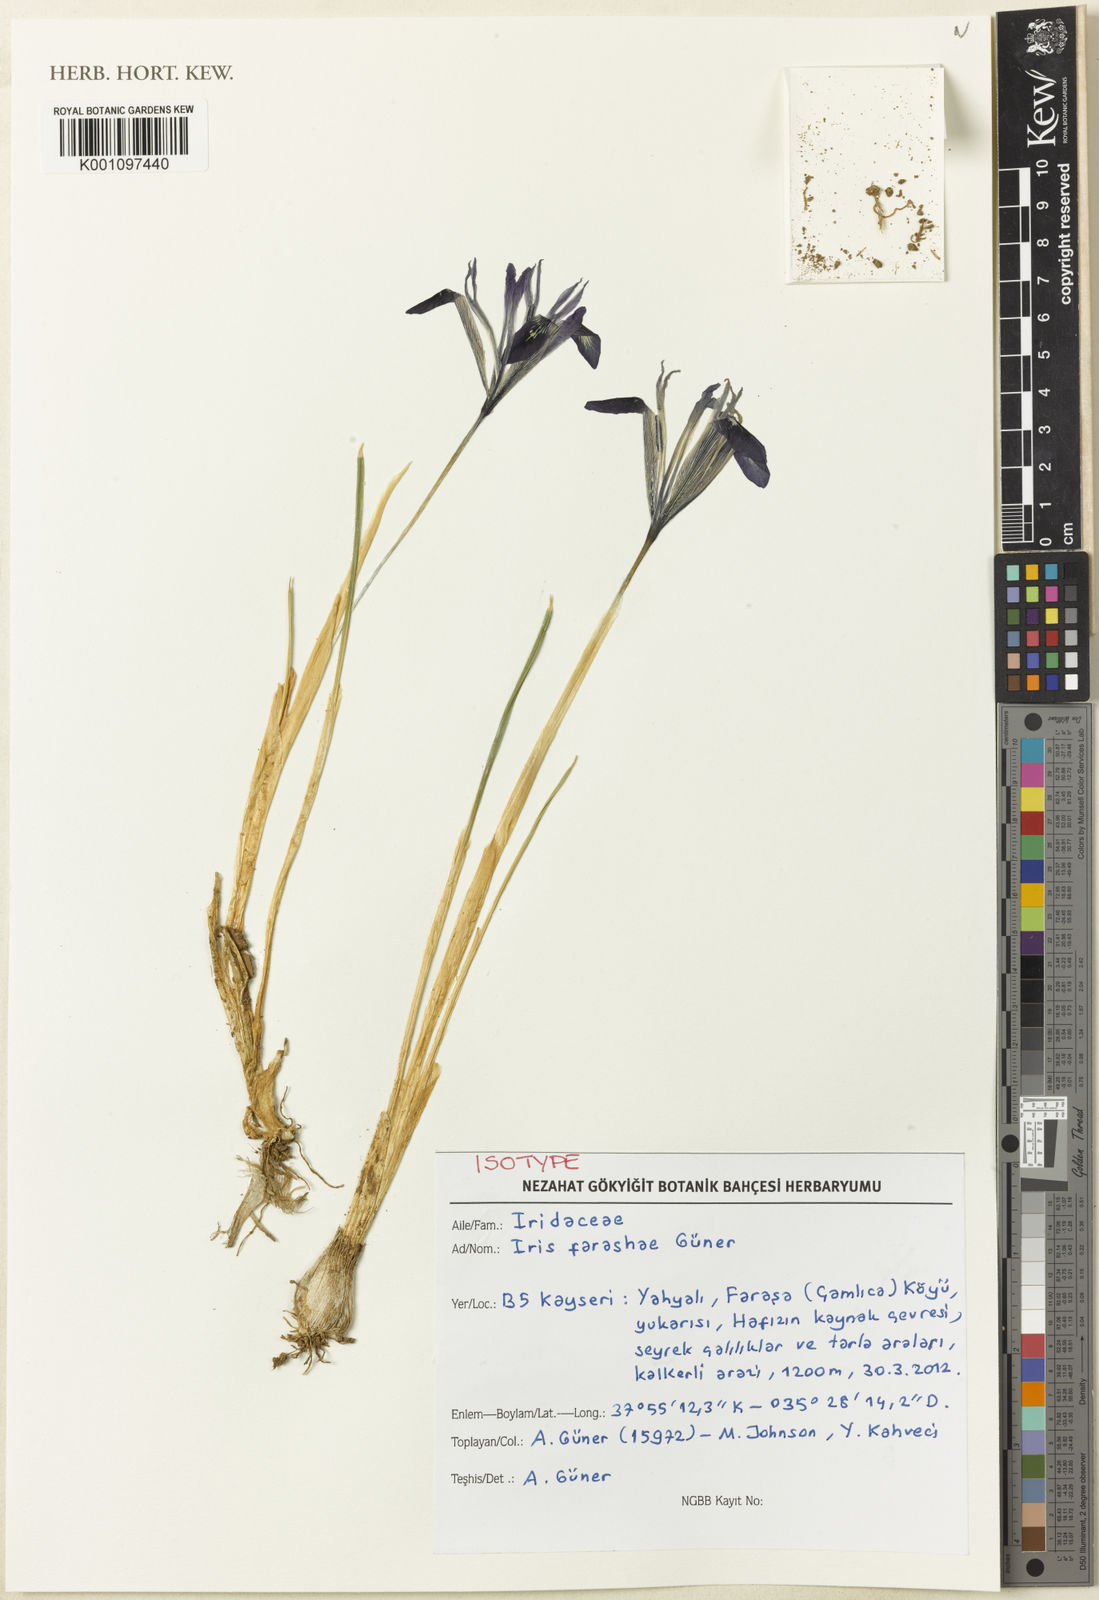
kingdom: Plantae
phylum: Tracheophyta
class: Liliopsida
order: Asparagales
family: Iridaceae
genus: Iris
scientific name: Iris
